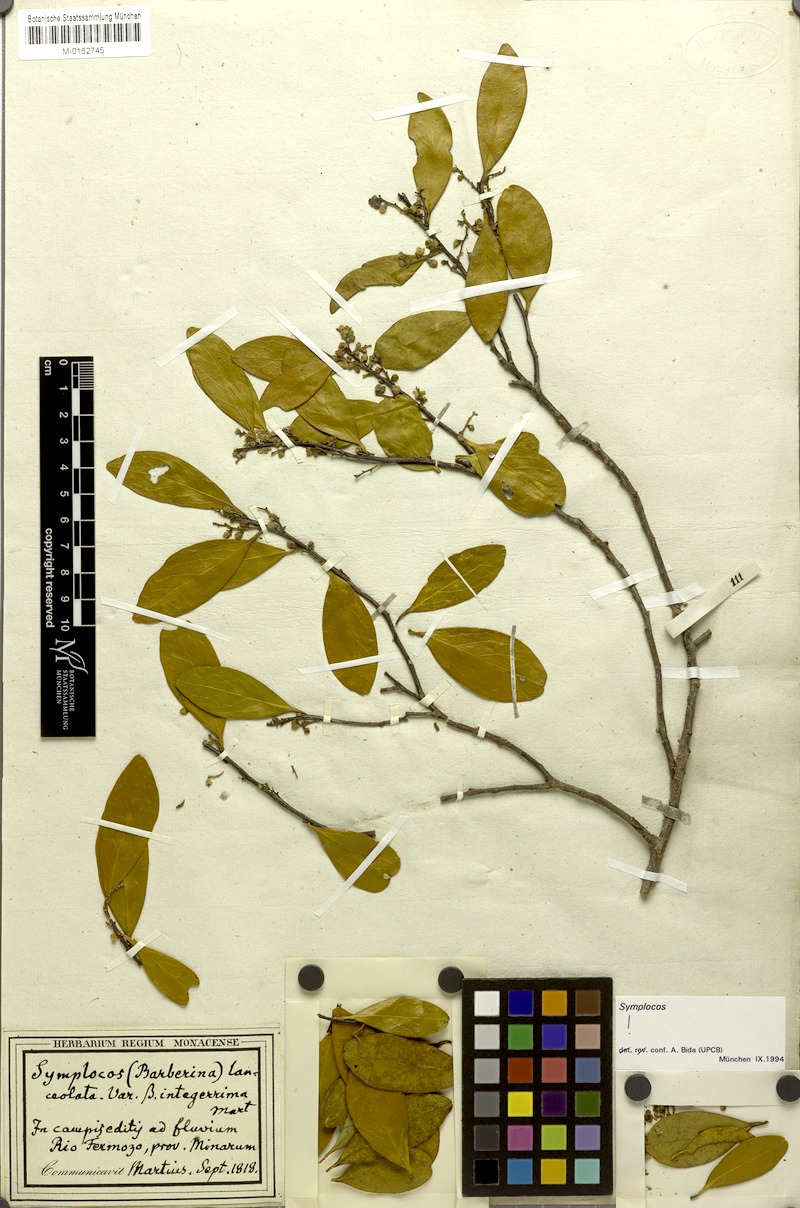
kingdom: Plantae
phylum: Tracheophyta
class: Magnoliopsida
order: Ericales
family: Symplocaceae
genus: Symplocos
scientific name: Symplocos oblongifolia
